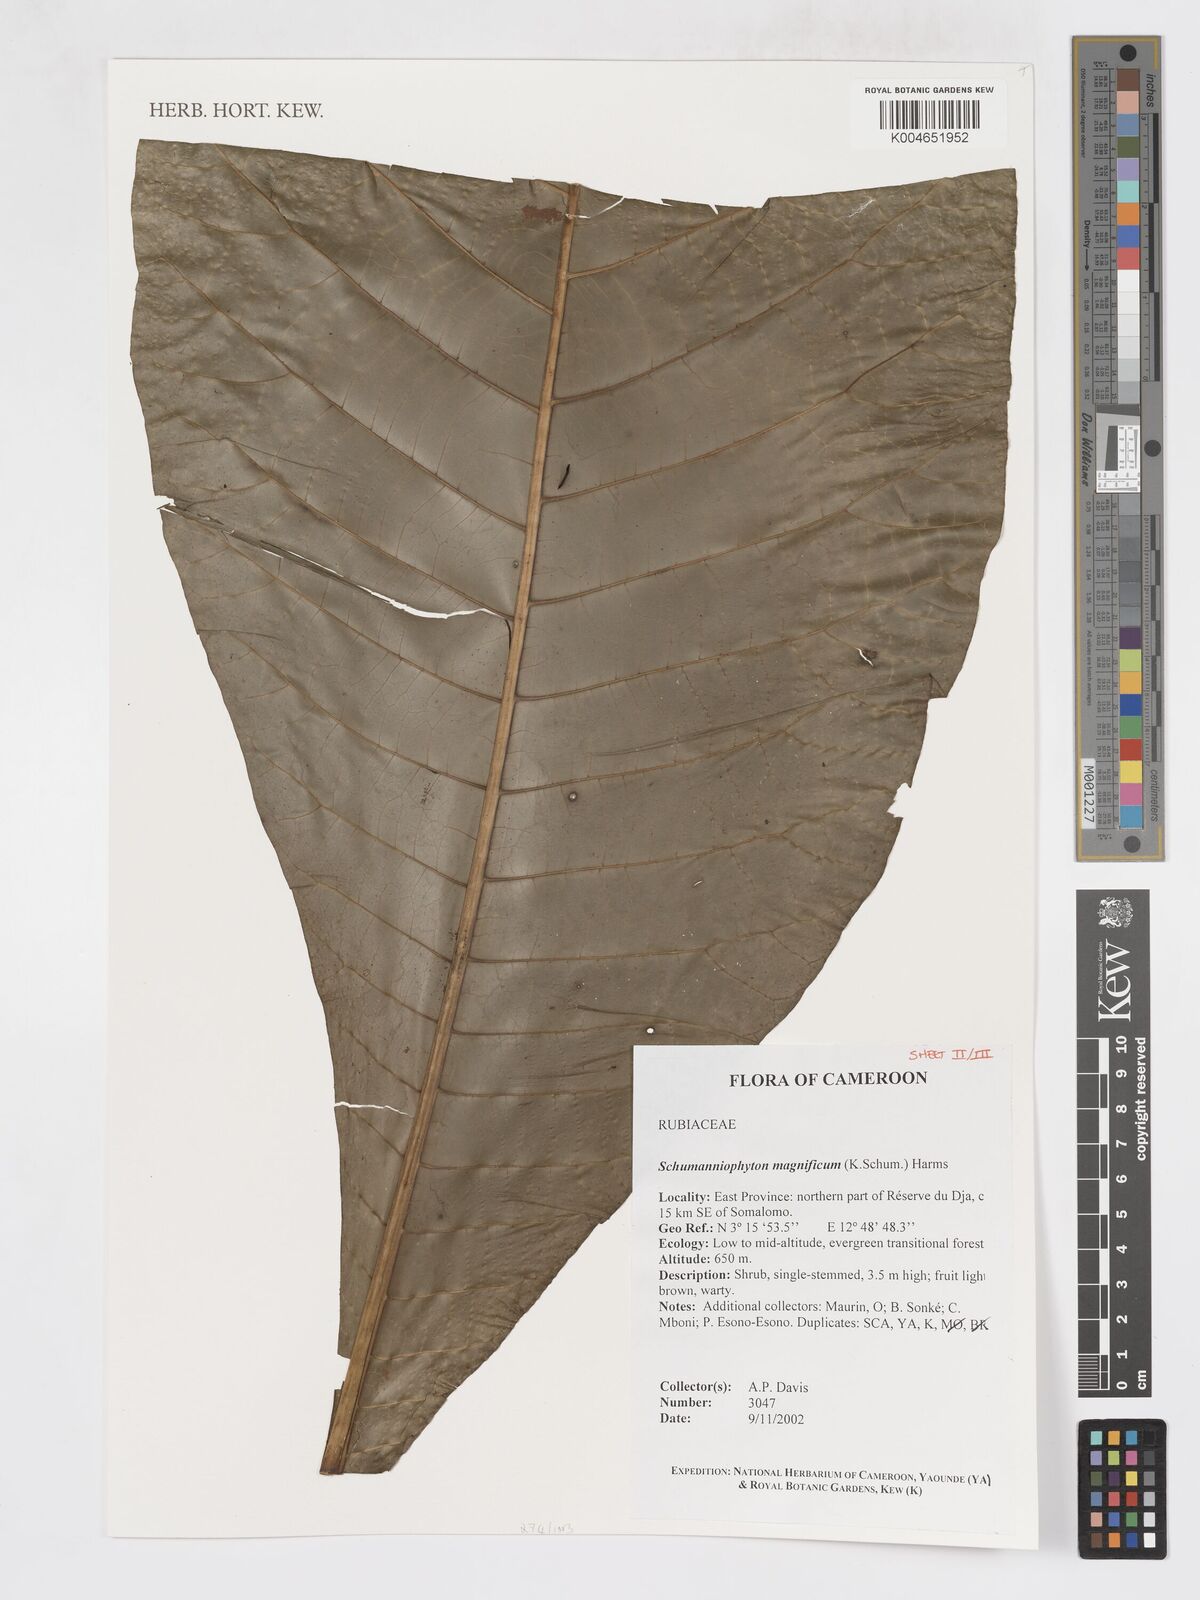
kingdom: Plantae
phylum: Tracheophyta
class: Magnoliopsida
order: Gentianales
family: Rubiaceae
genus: Schumanniophyton
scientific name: Schumanniophyton magnificum
